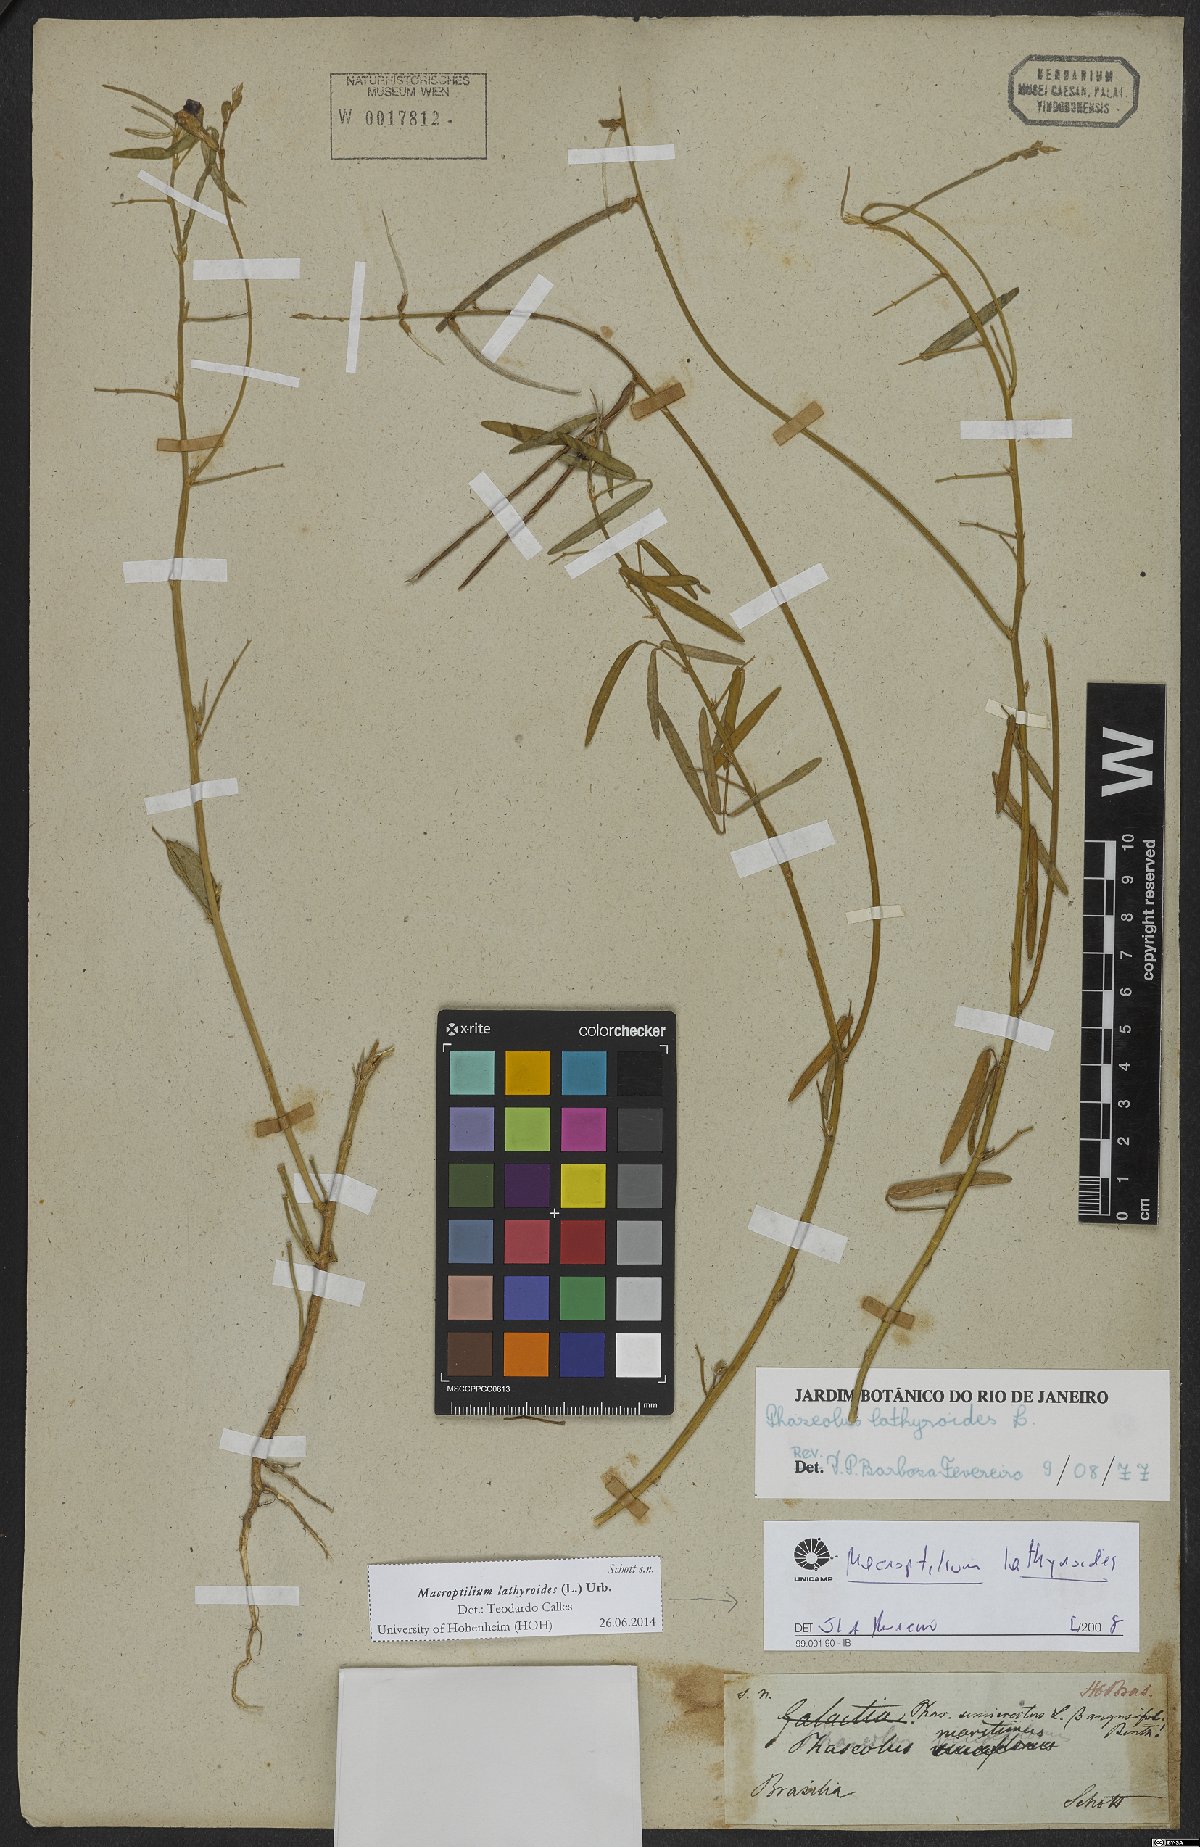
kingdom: Plantae
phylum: Tracheophyta
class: Magnoliopsida
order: Fabales
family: Fabaceae
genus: Macroptilium
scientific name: Macroptilium lathyroides
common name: Wild bushbean
